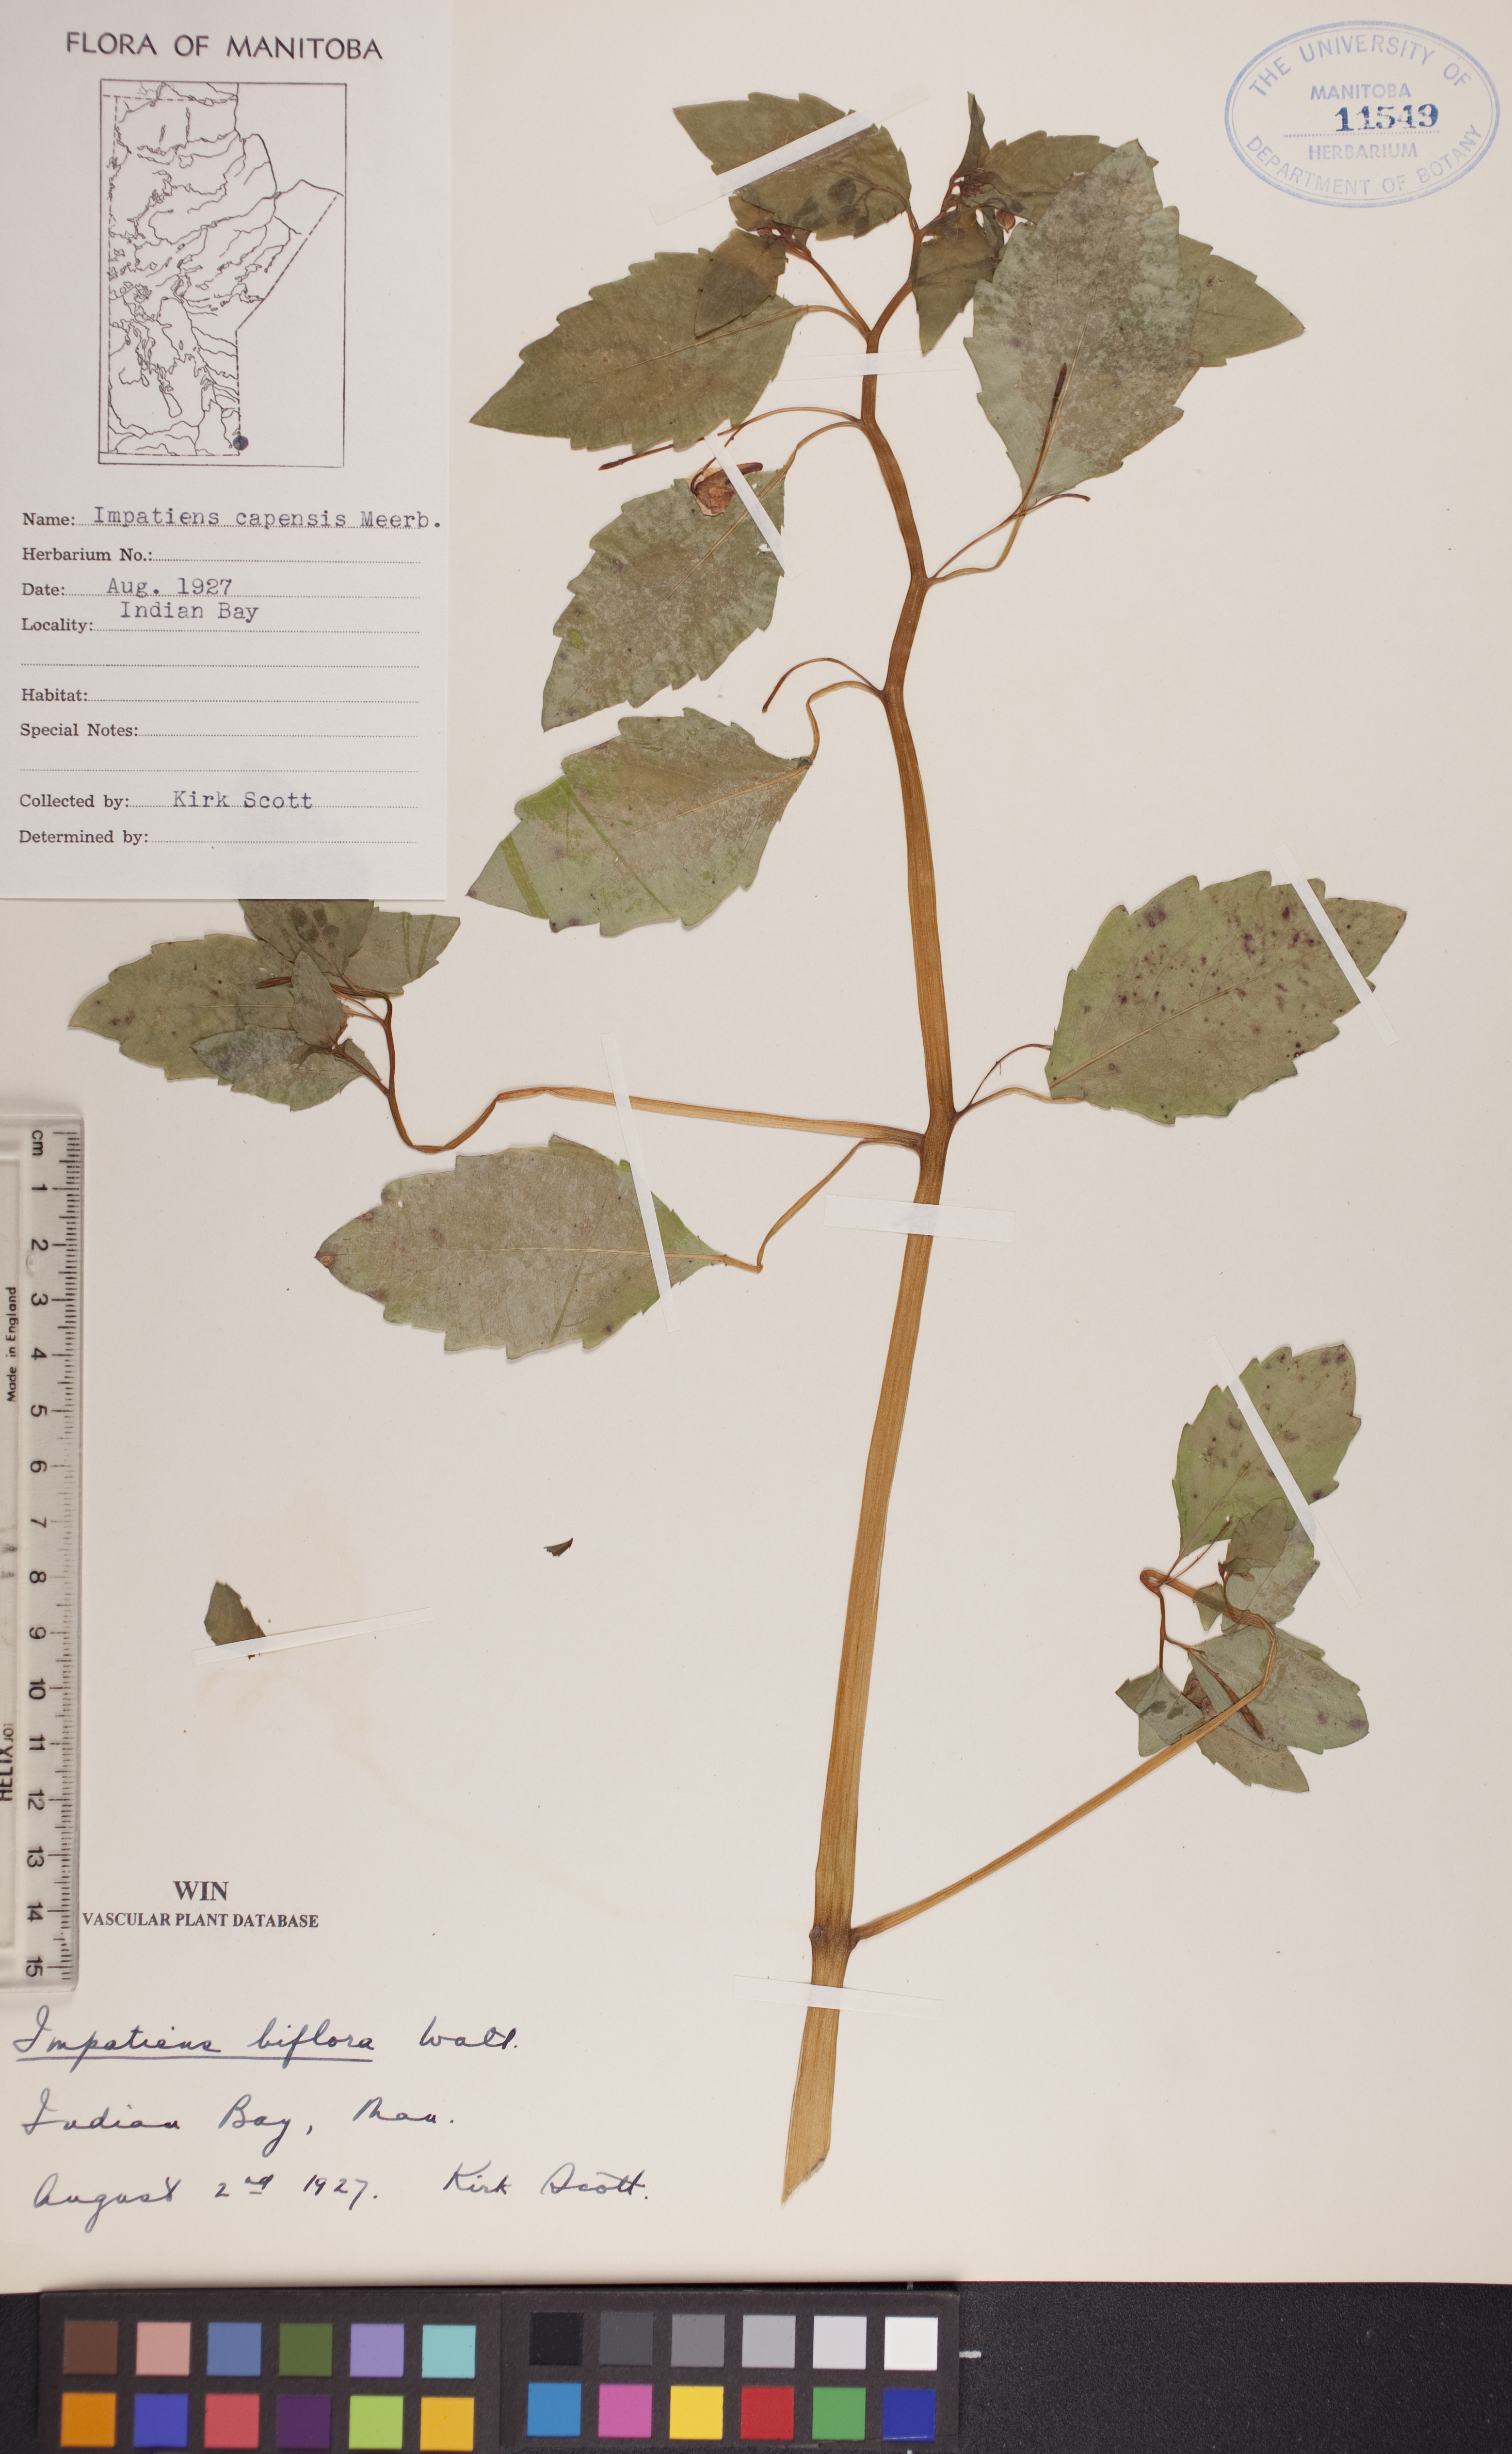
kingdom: Plantae
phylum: Tracheophyta
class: Magnoliopsida
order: Ericales
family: Balsaminaceae
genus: Impatiens
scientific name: Impatiens capensis
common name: Orange balsam
